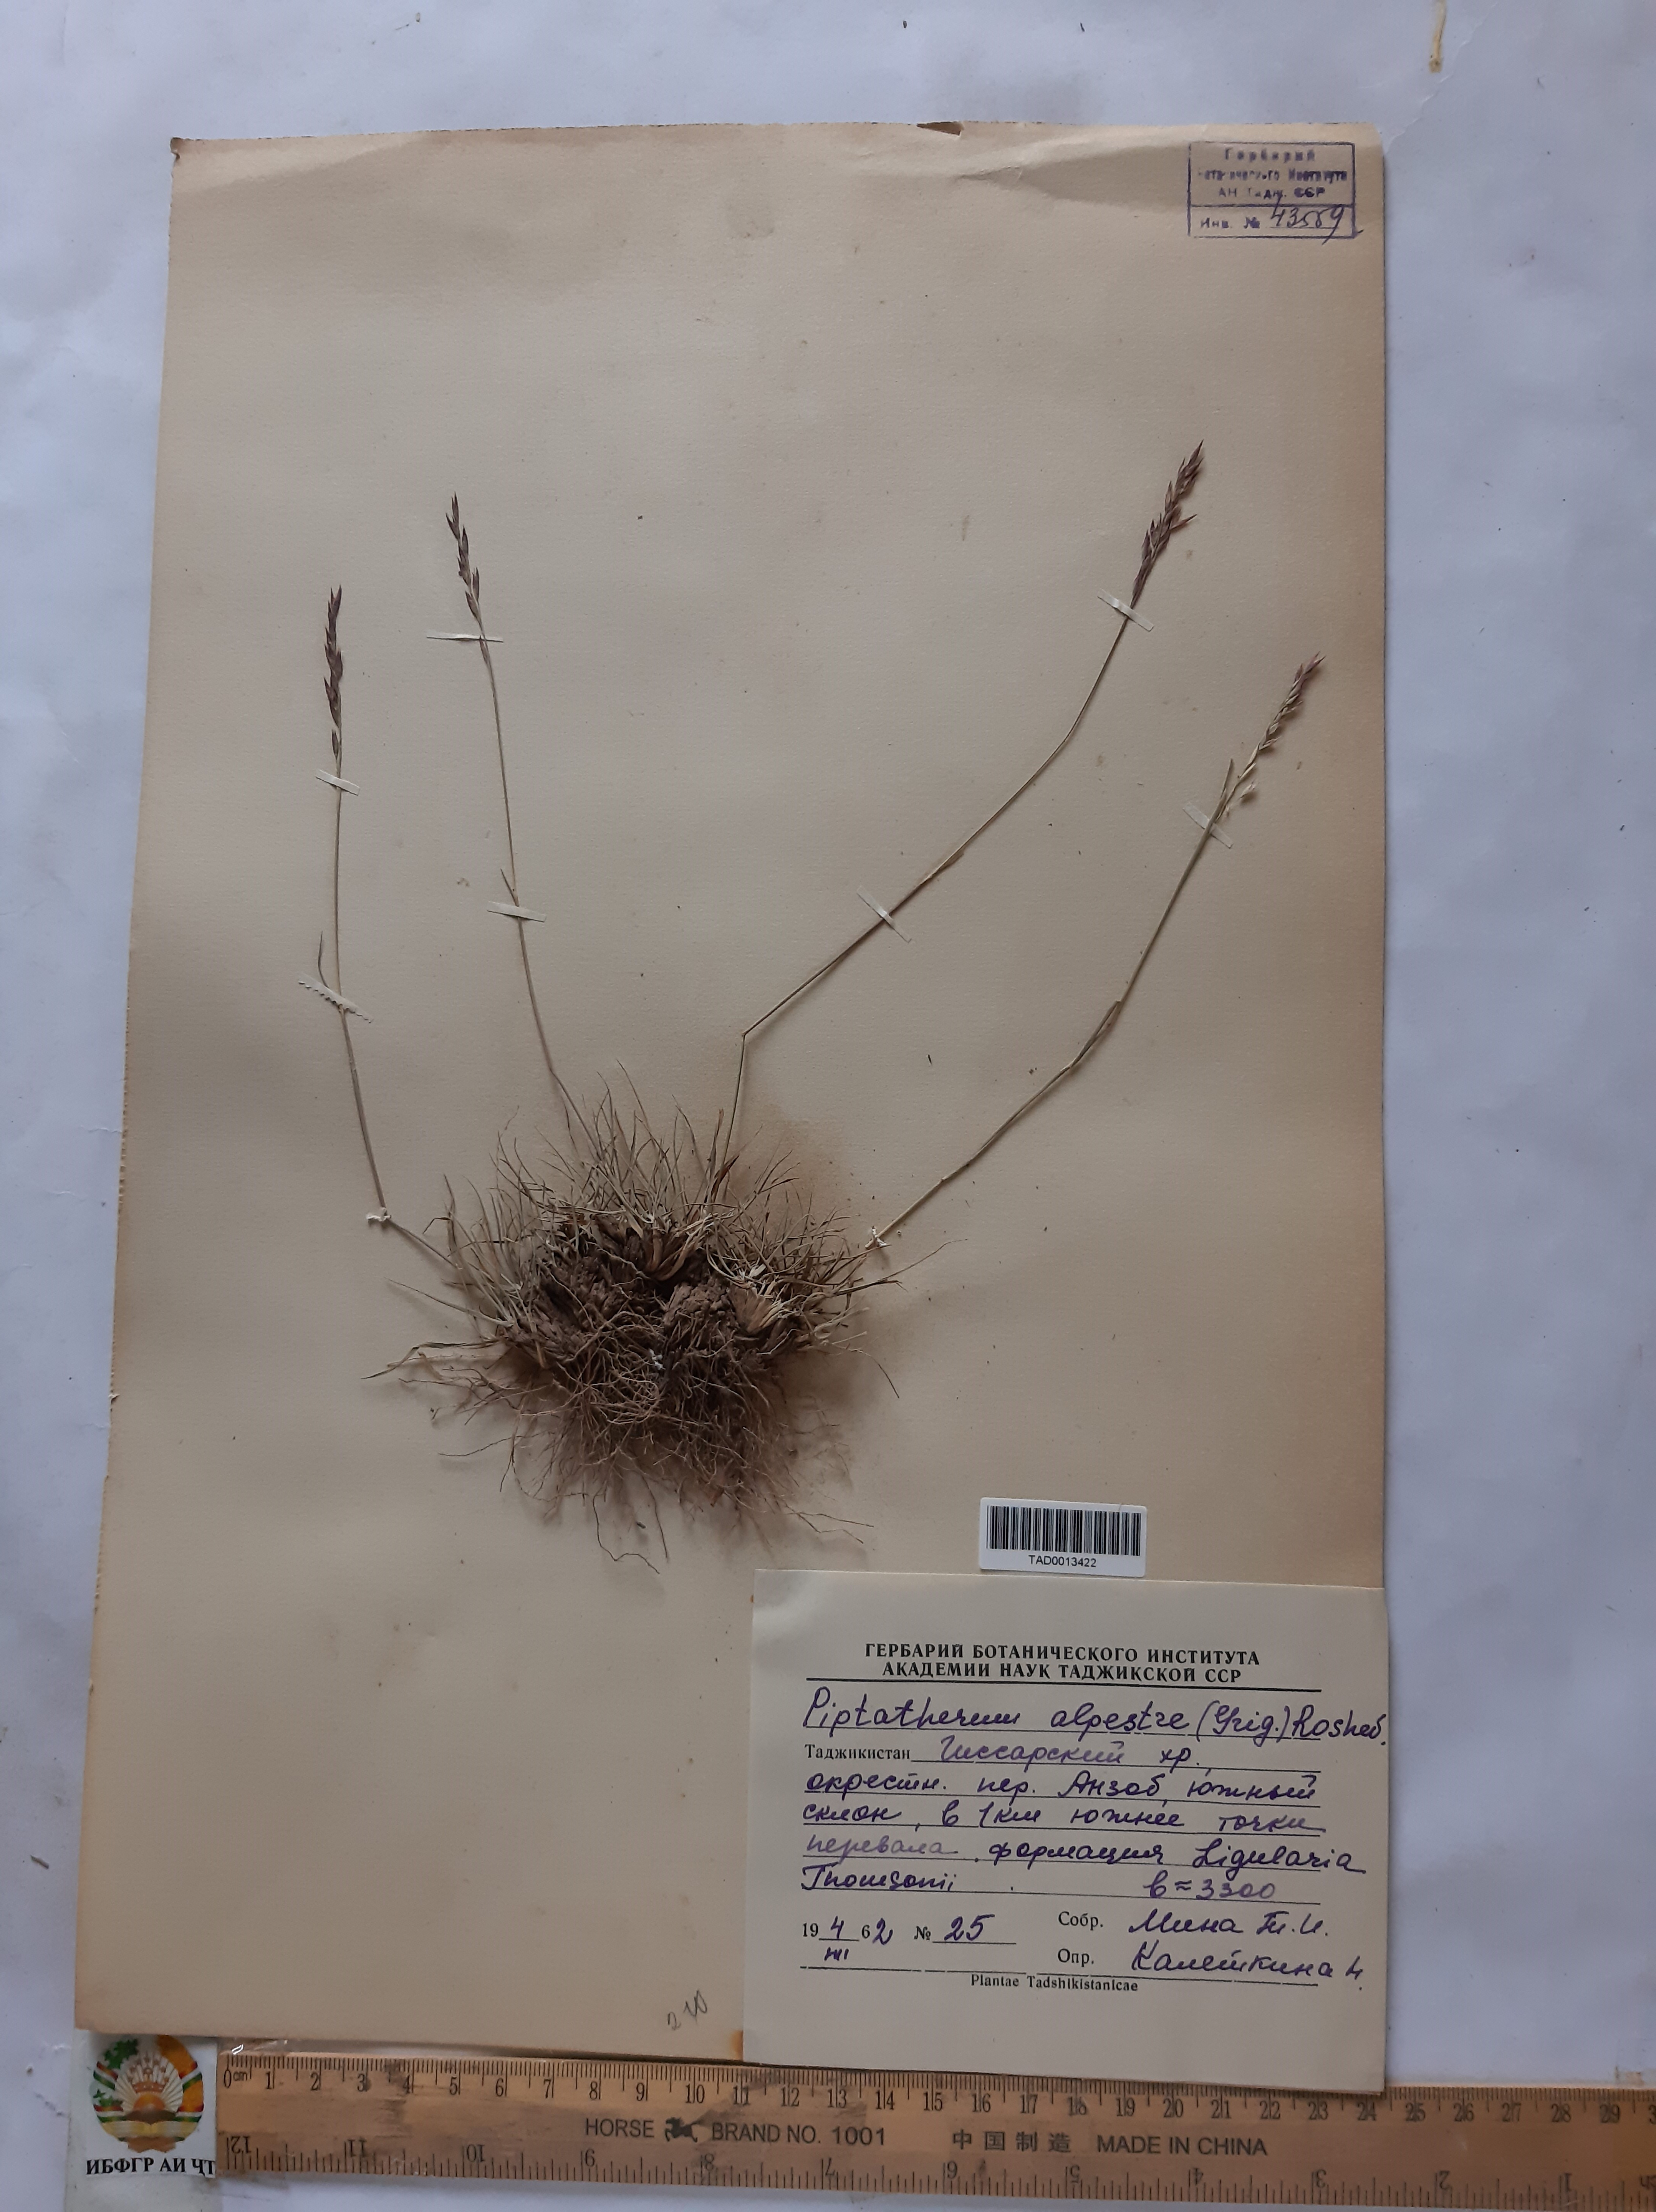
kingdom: Plantae
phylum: Tracheophyta
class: Liliopsida
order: Poales
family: Poaceae
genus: Piptatherum
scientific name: Piptatherum alpestre
